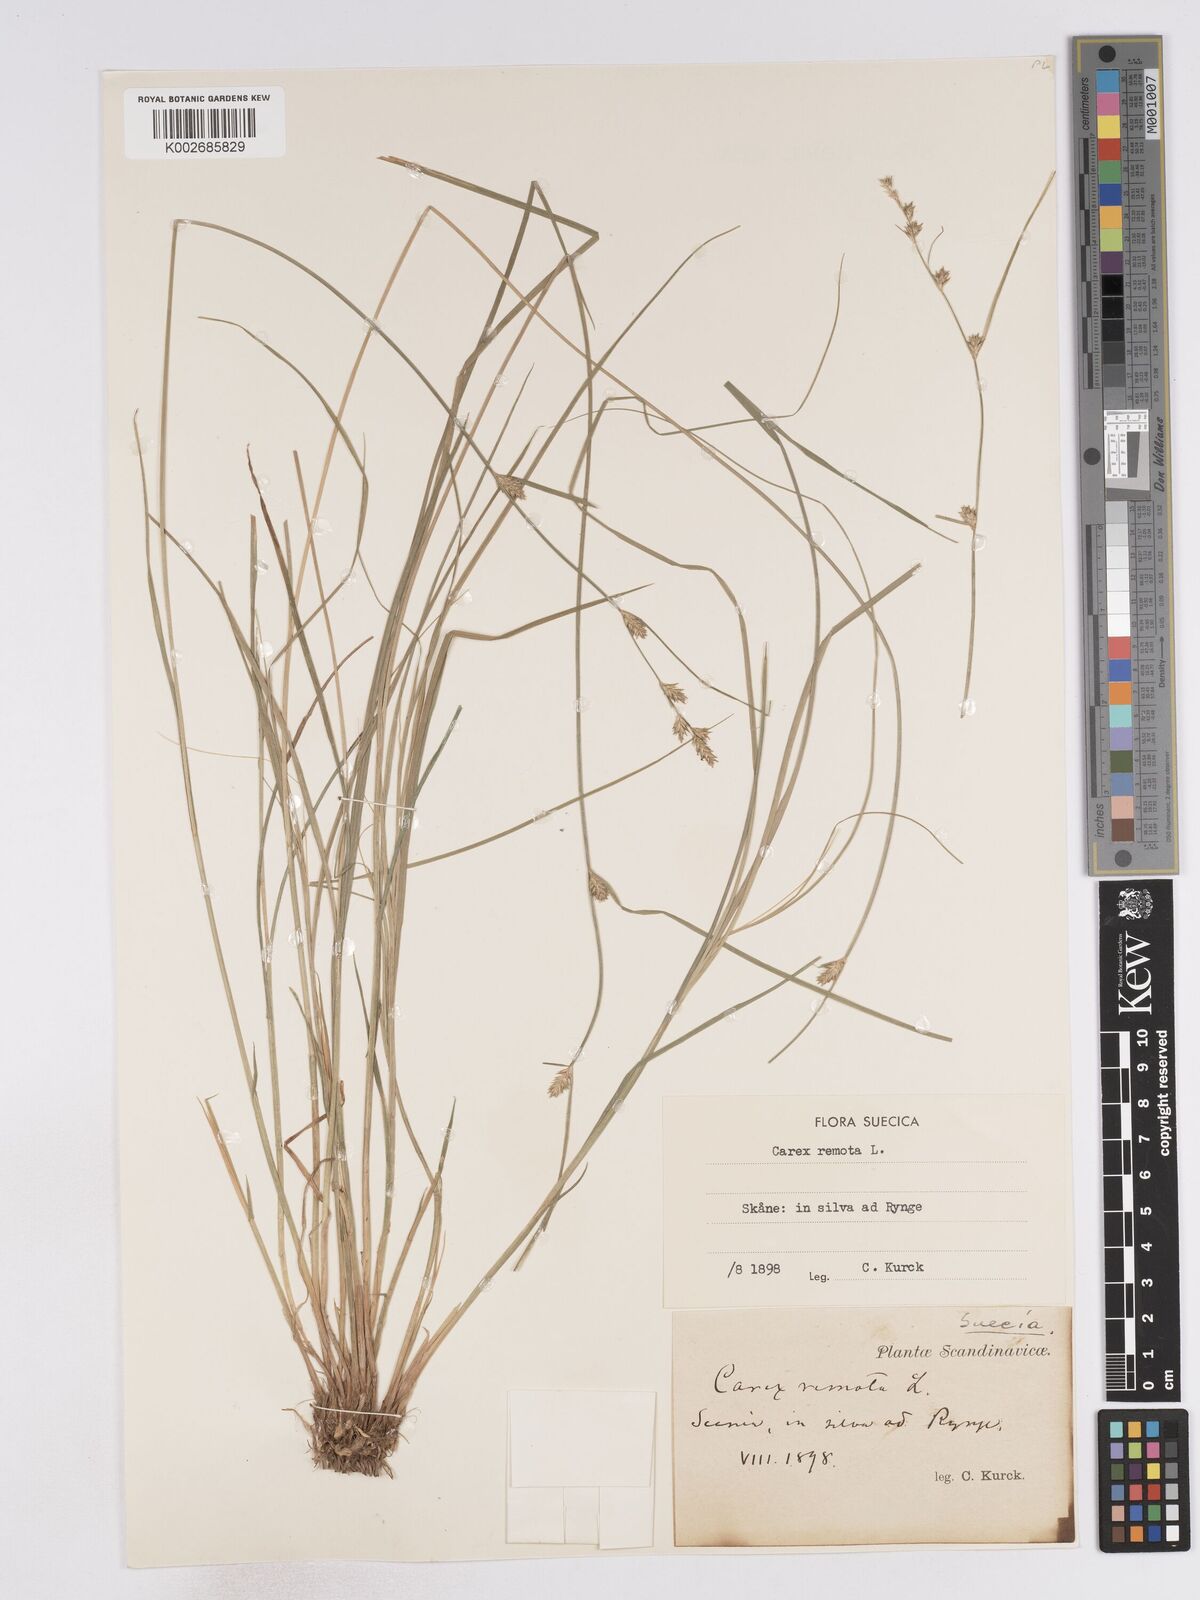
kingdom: Plantae
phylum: Tracheophyta
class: Liliopsida
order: Poales
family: Cyperaceae
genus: Carex
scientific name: Carex remota
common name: Remote sedge
